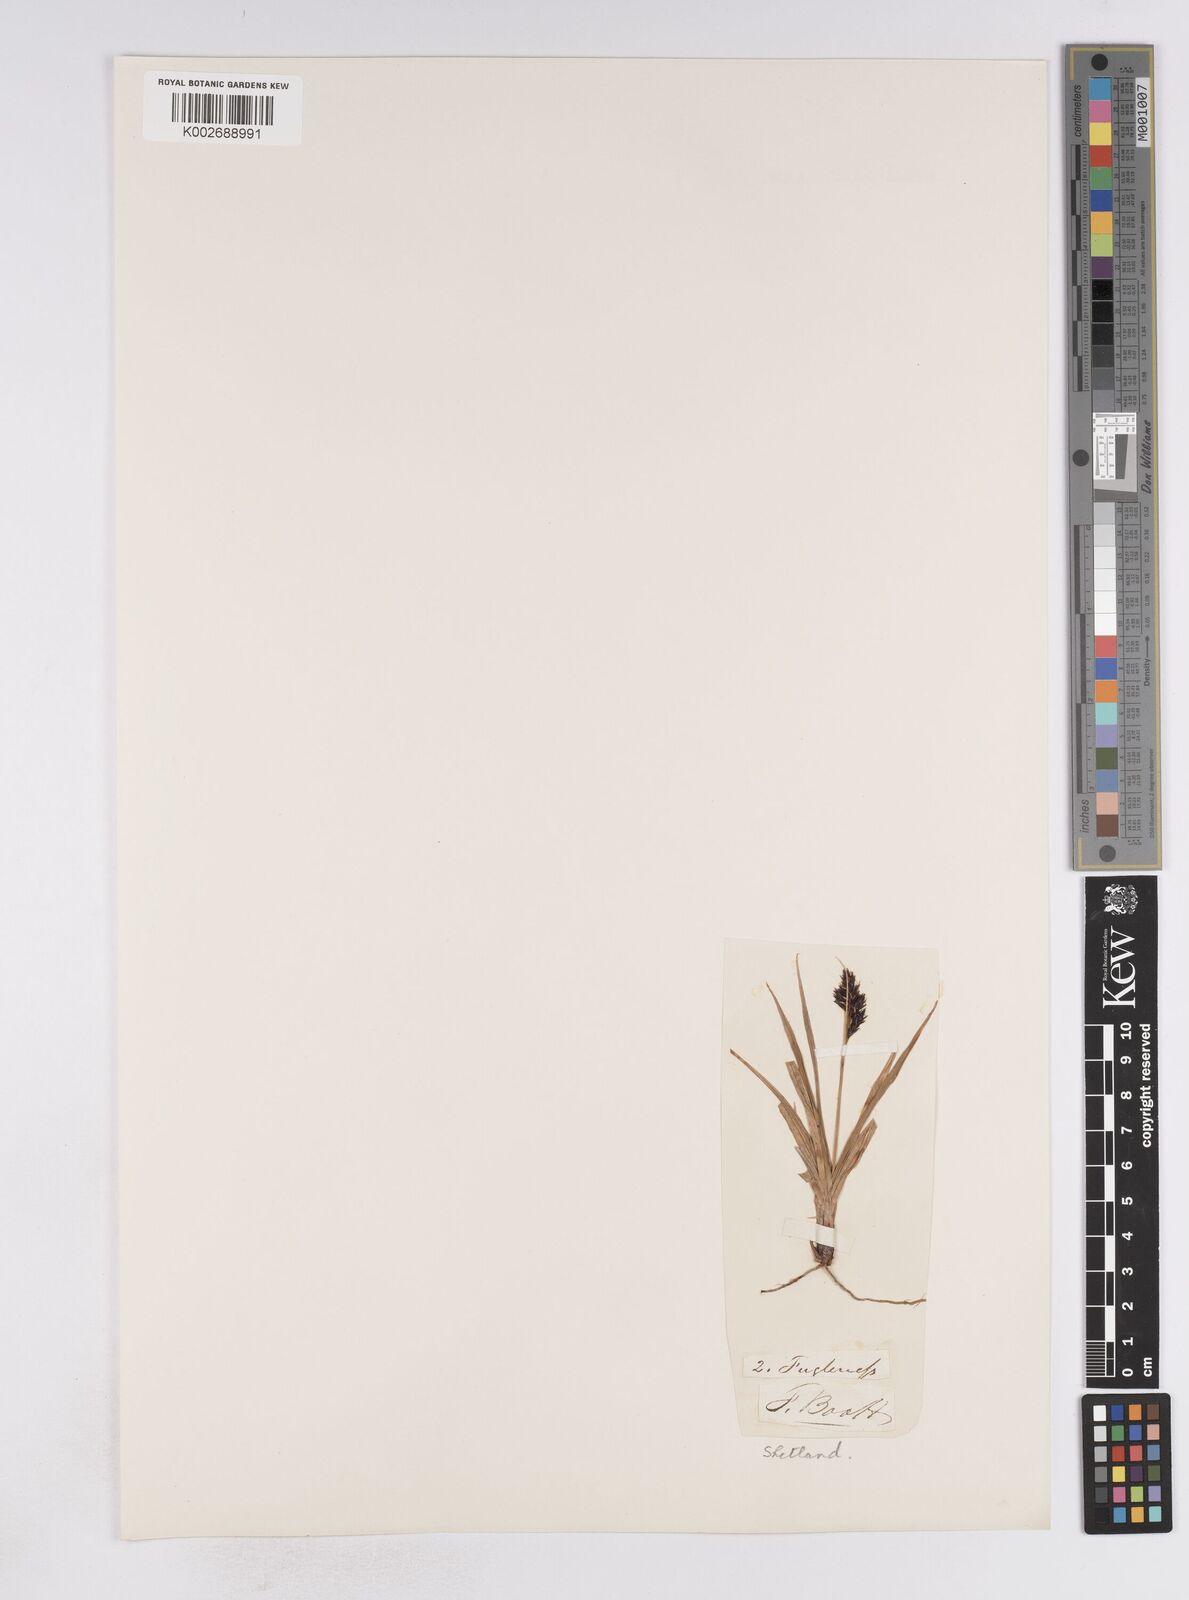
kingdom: Plantae
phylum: Tracheophyta
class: Liliopsida
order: Poales
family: Cyperaceae
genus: Carex
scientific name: Carex atrata
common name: Black alpine sedge
